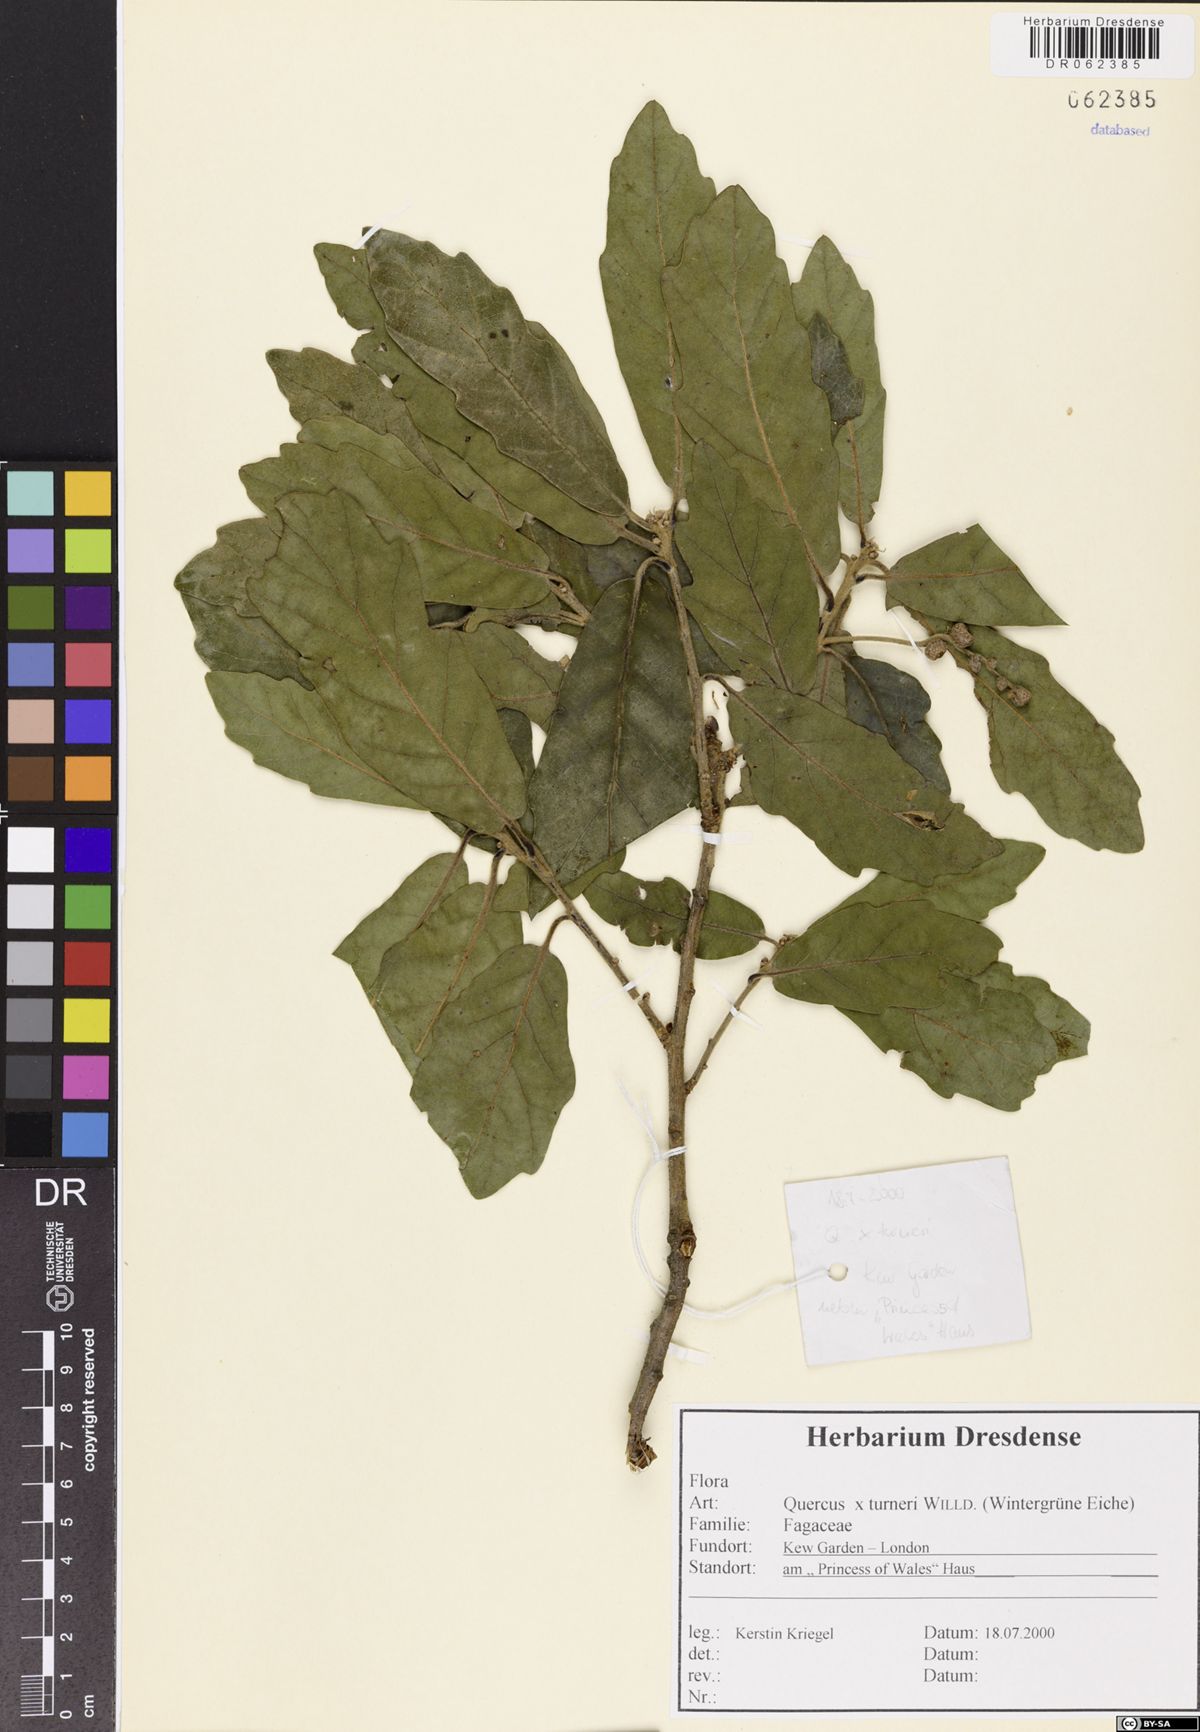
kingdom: Plantae
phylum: Tracheophyta
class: Magnoliopsida
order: Fagales
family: Fagaceae
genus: Quercus
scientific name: Quercus turneri
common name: Turner's oak
